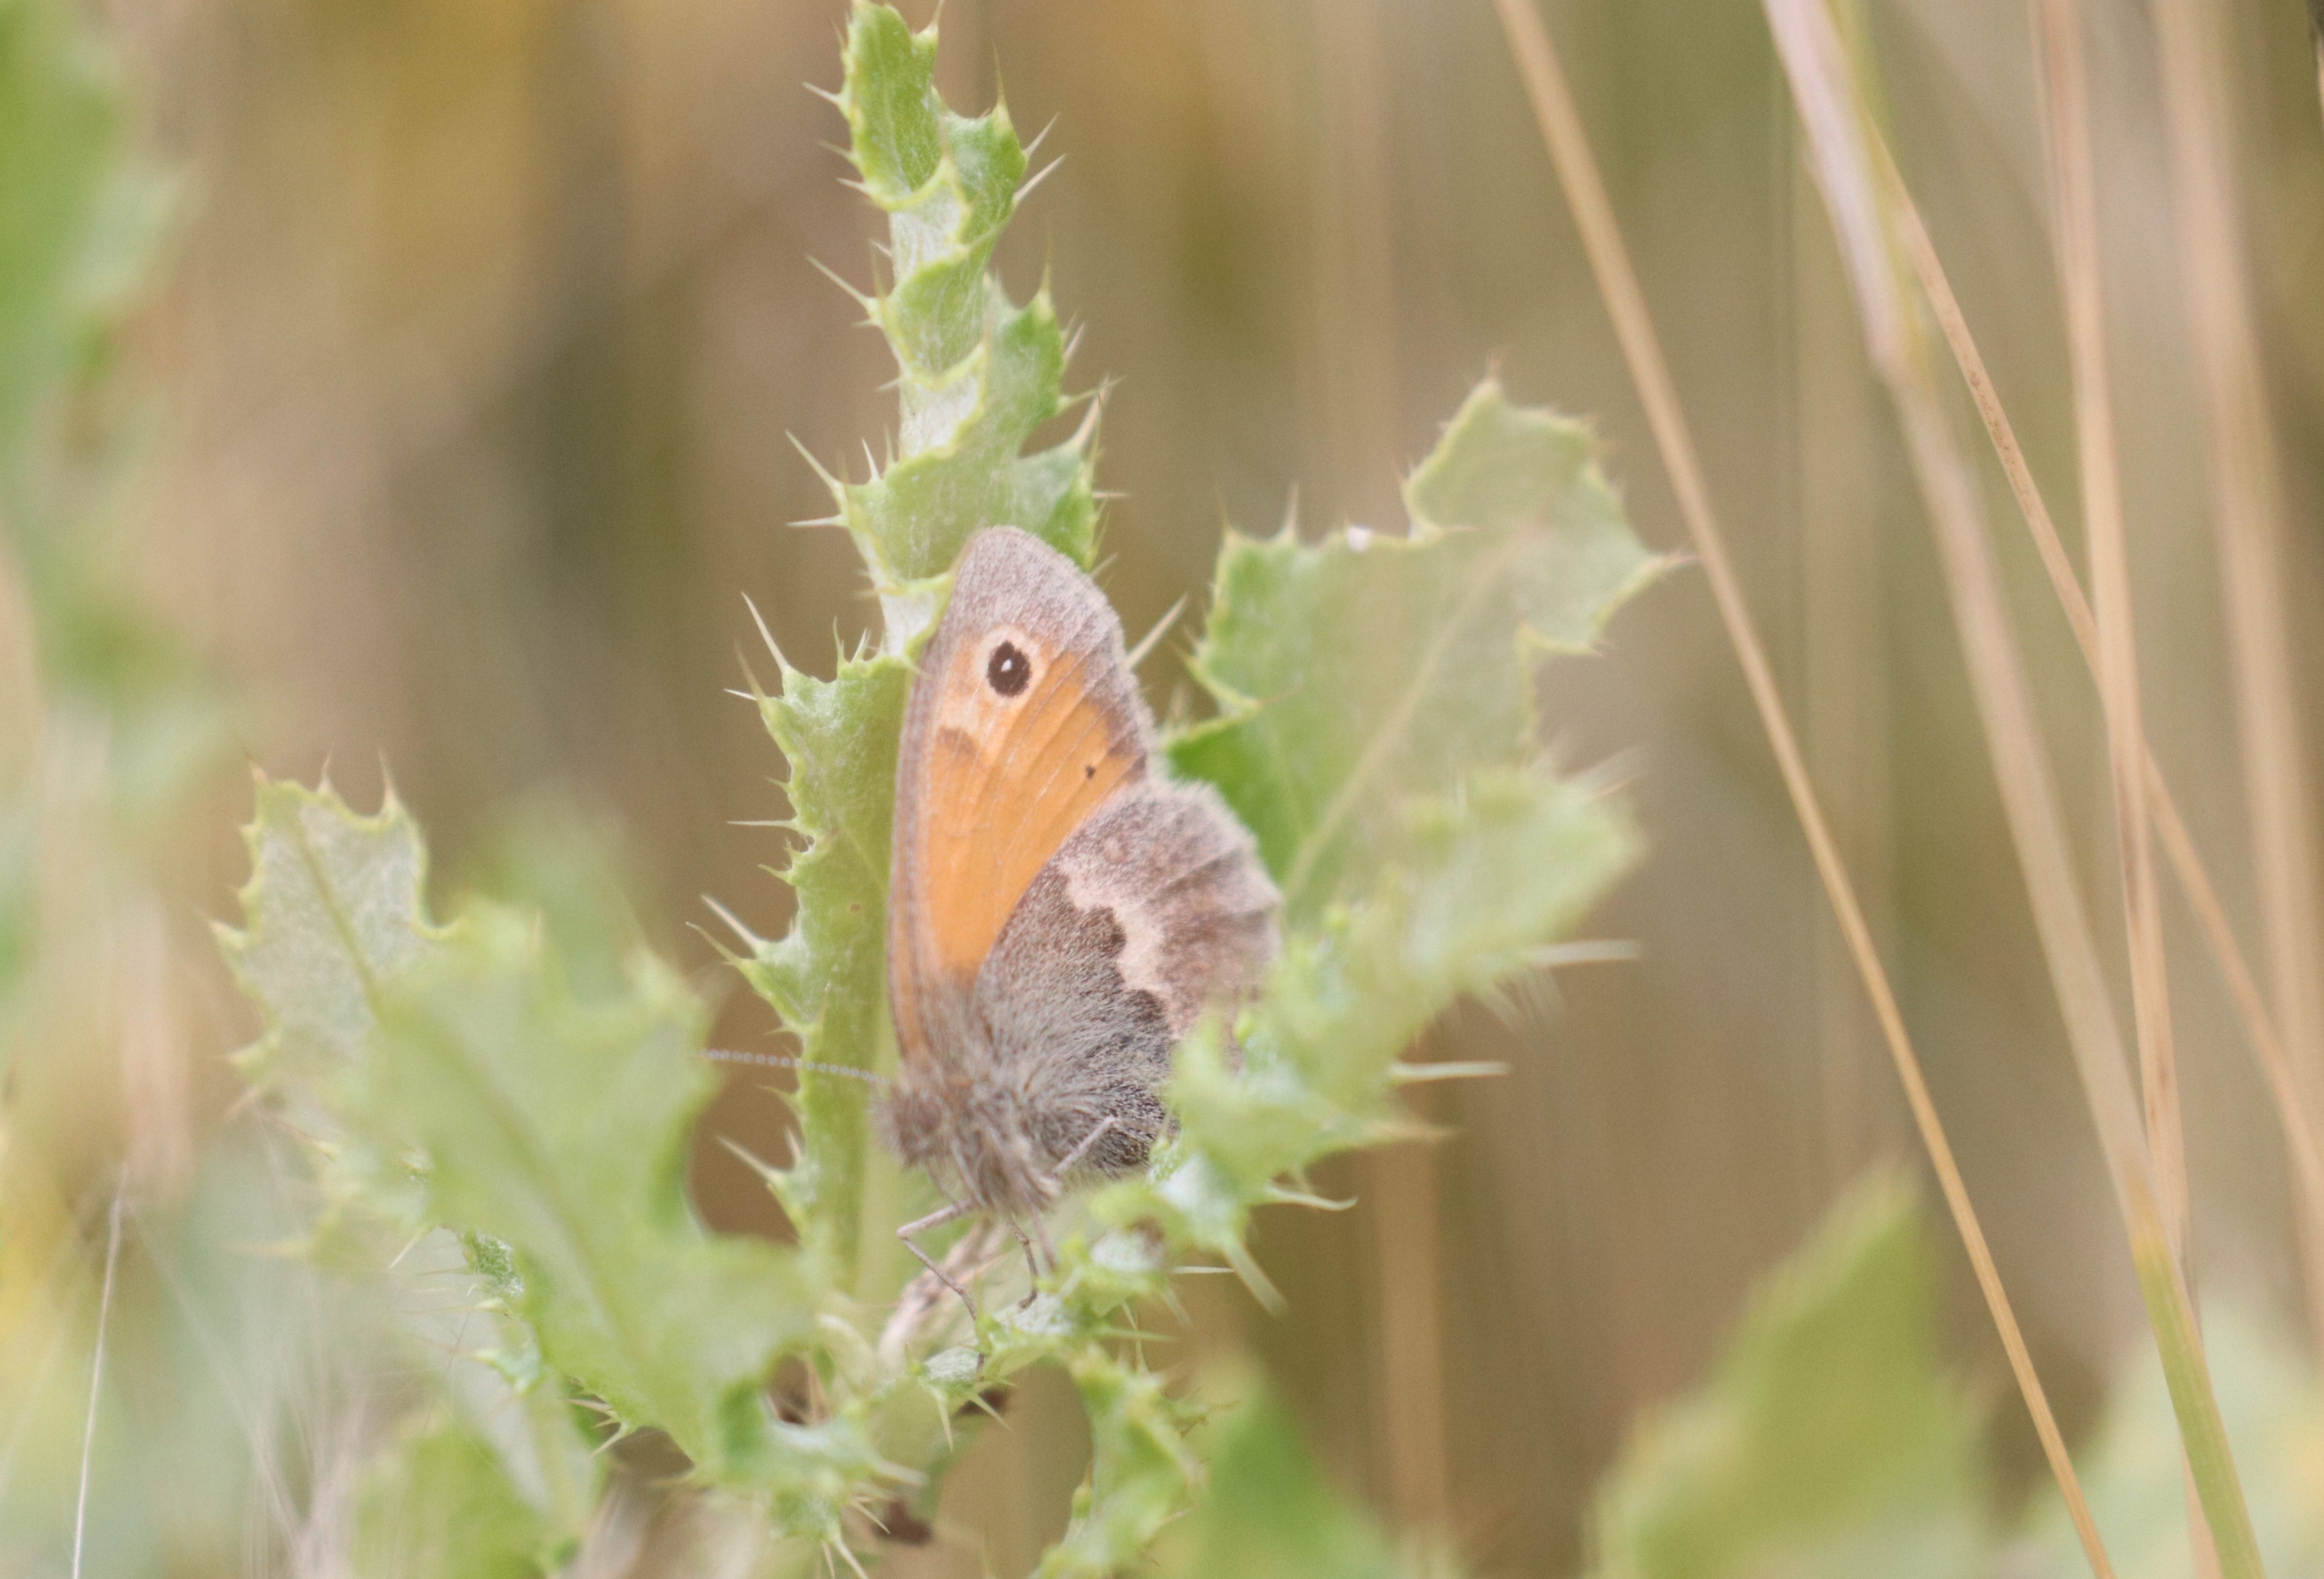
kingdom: Animalia
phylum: Arthropoda
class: Insecta
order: Lepidoptera
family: Nymphalidae
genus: Coenonympha
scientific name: Coenonympha pamphilus
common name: Okkergul randøje
